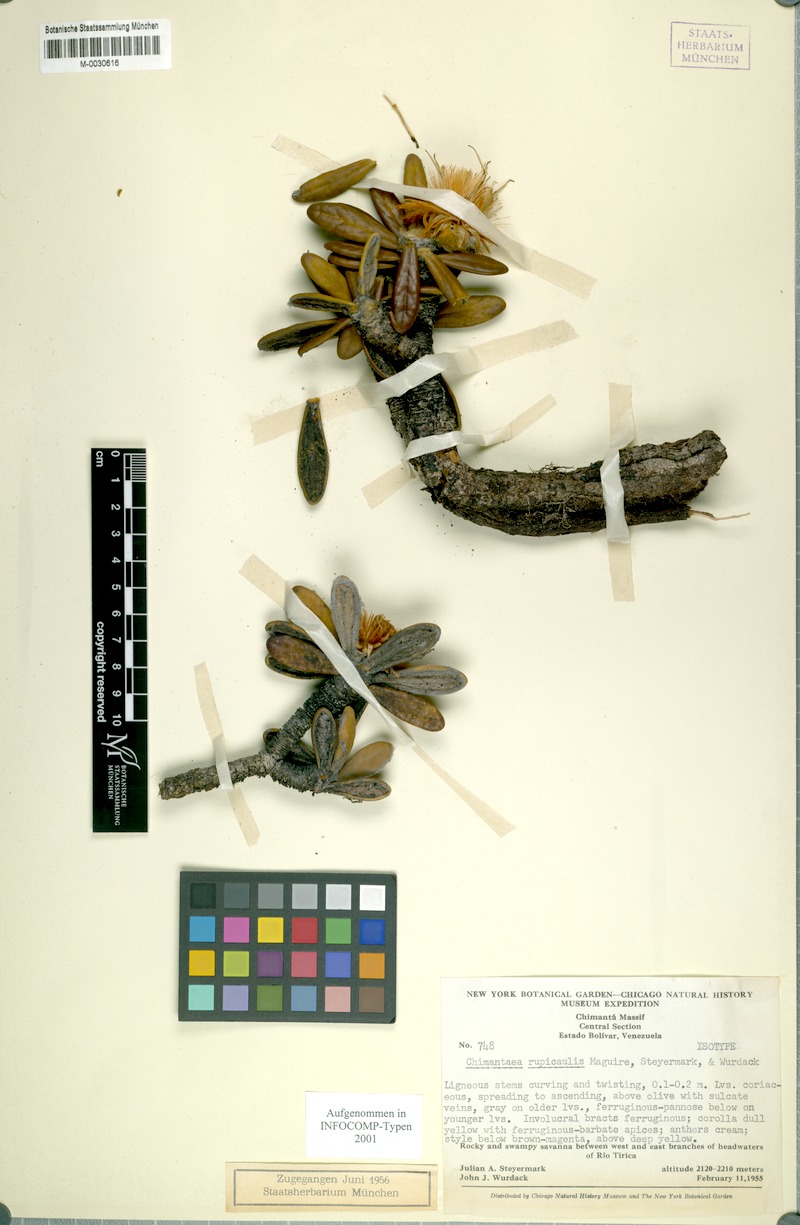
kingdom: Plantae
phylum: Tracheophyta
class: Magnoliopsida
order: Asterales
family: Asteraceae
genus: Chimantaea
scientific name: Chimantaea rupicola
